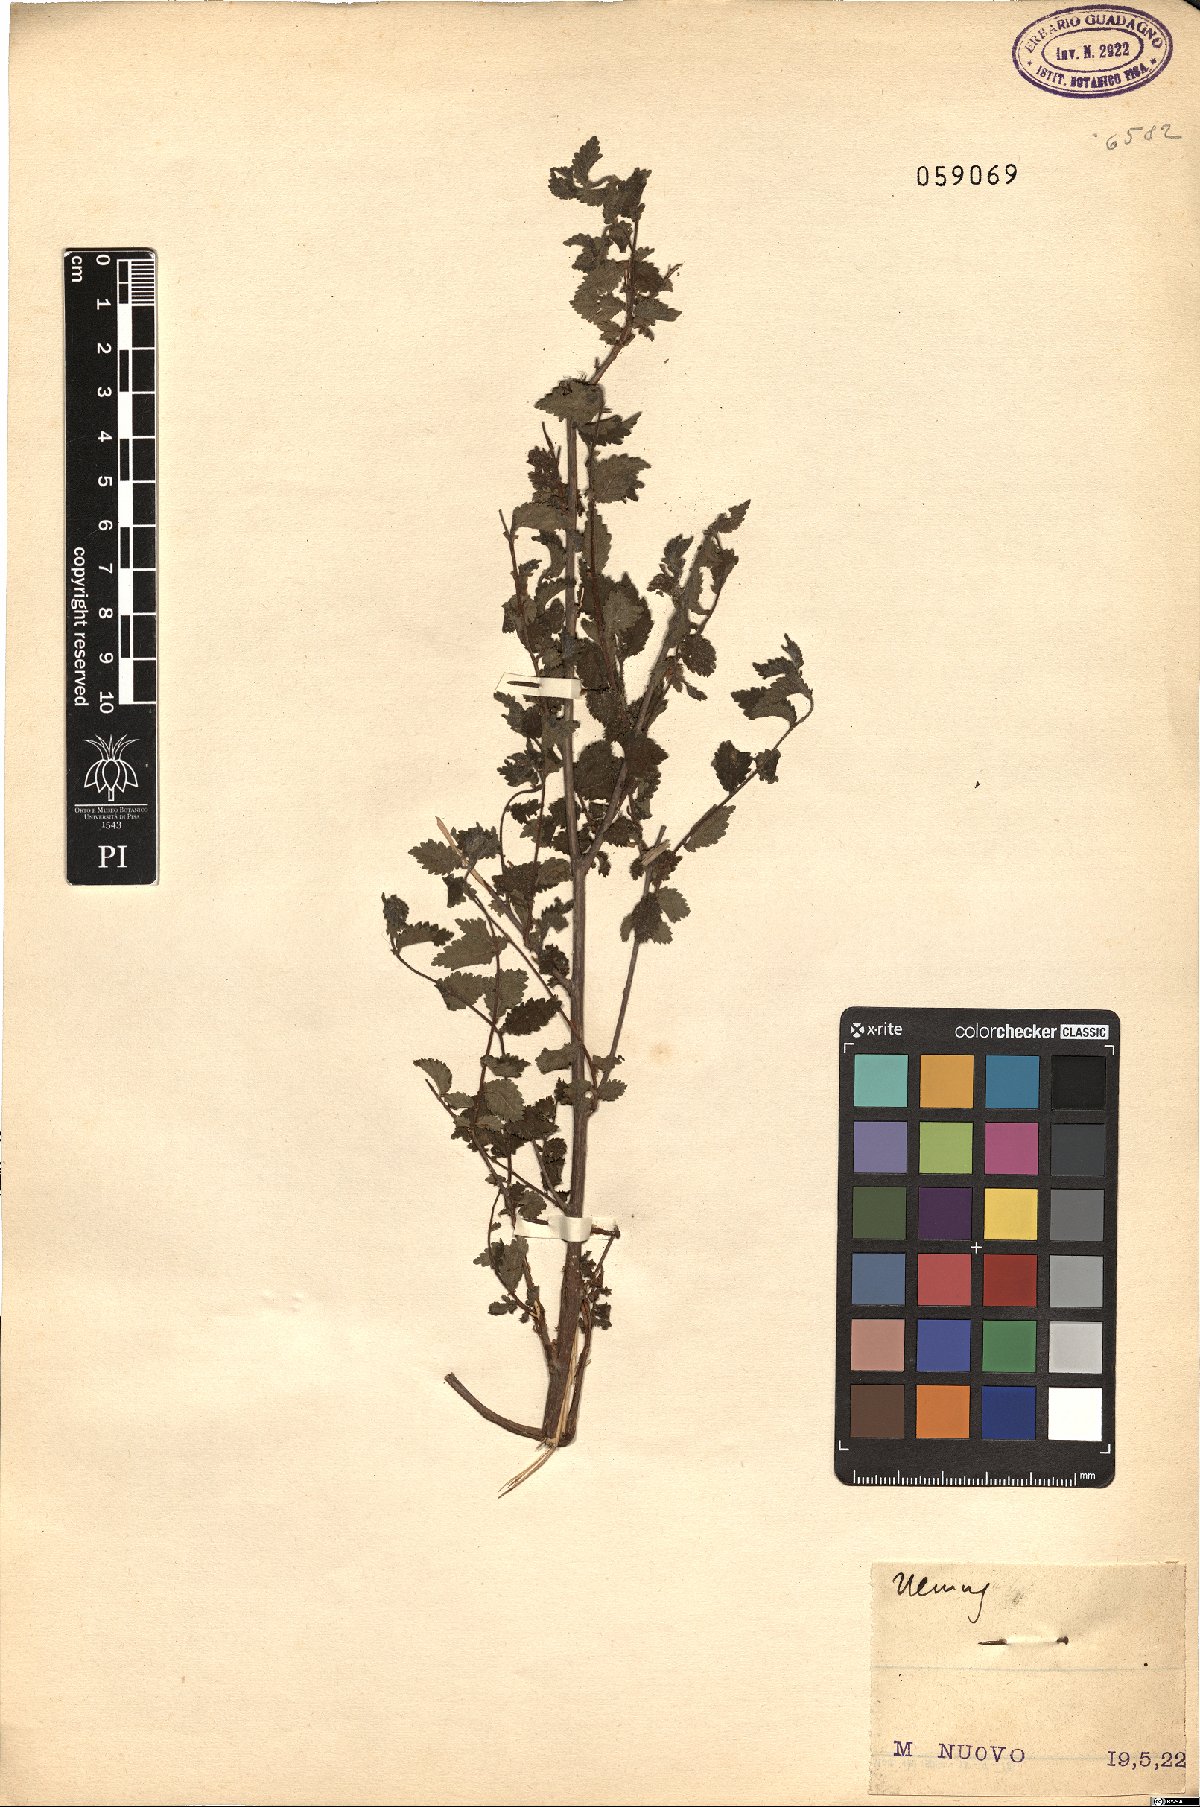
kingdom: Plantae
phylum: Tracheophyta
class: Magnoliopsida
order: Rosales
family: Ulmaceae
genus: Ulmus
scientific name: Ulmus
